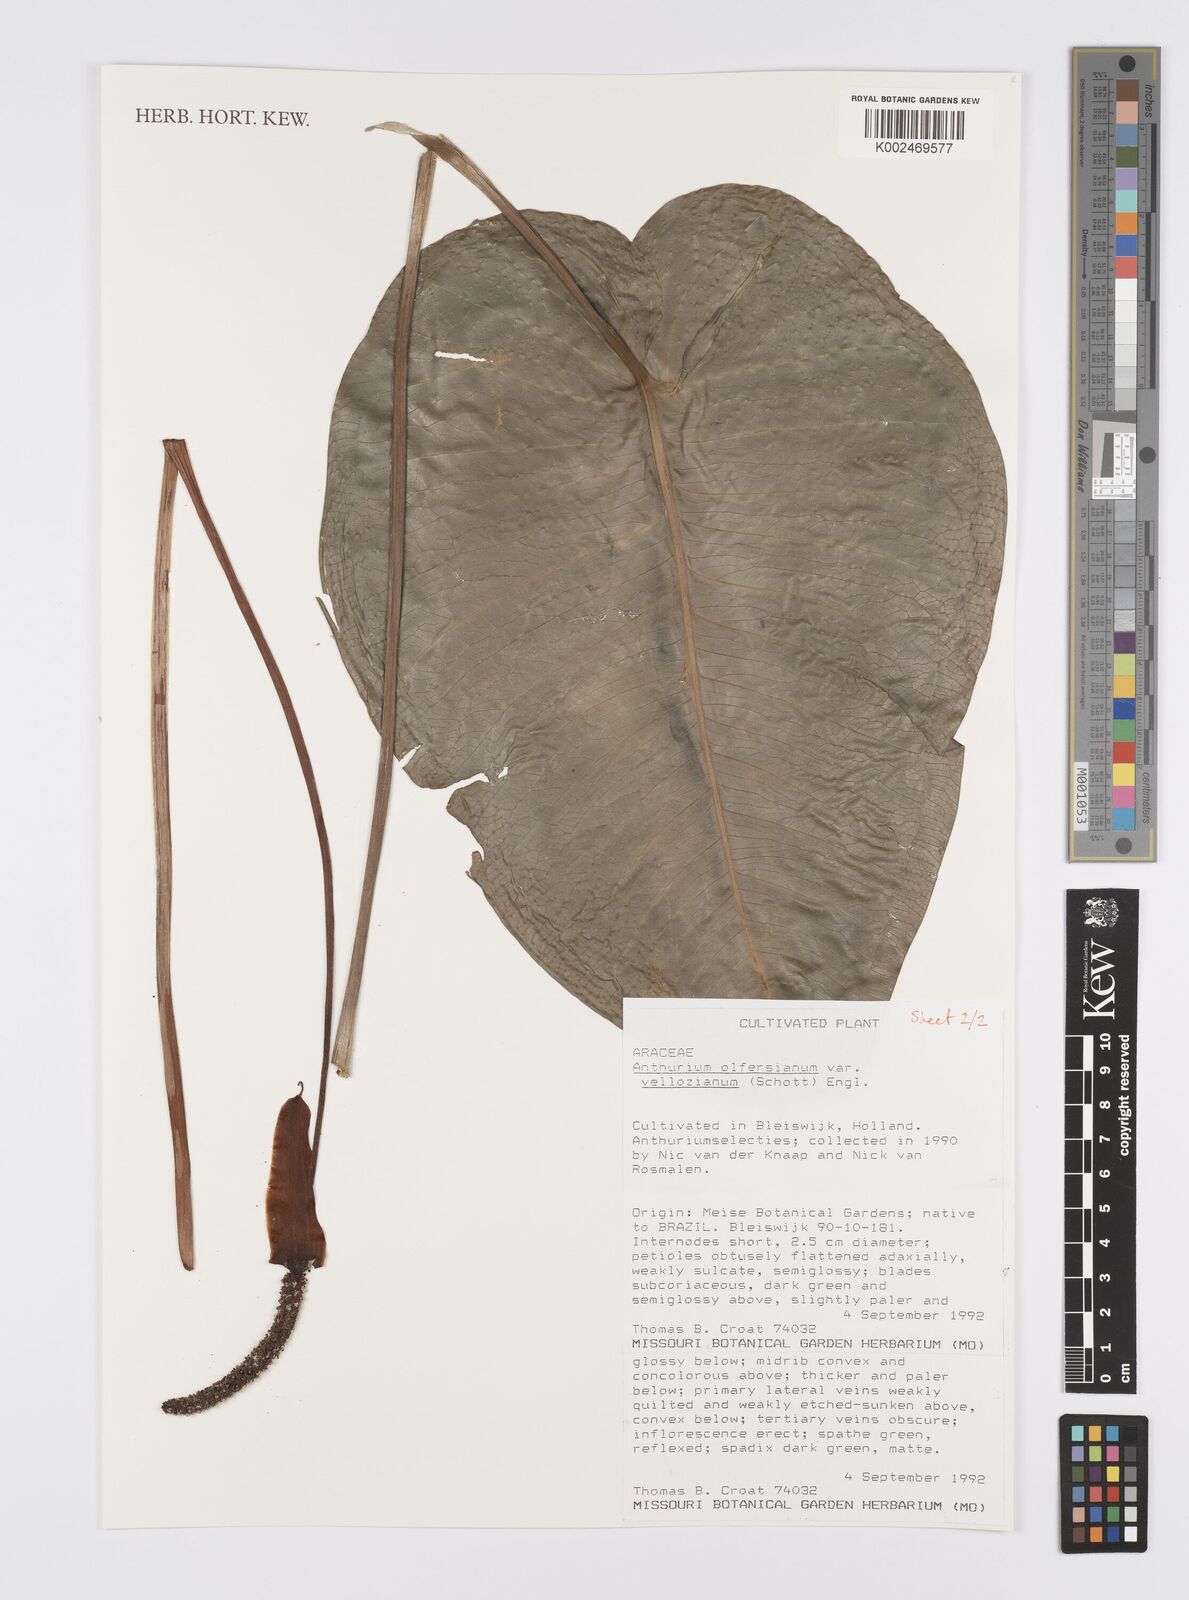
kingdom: Plantae
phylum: Tracheophyta
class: Liliopsida
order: Alismatales
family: Araceae
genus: Anthurium
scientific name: Anthurium parasiticum
